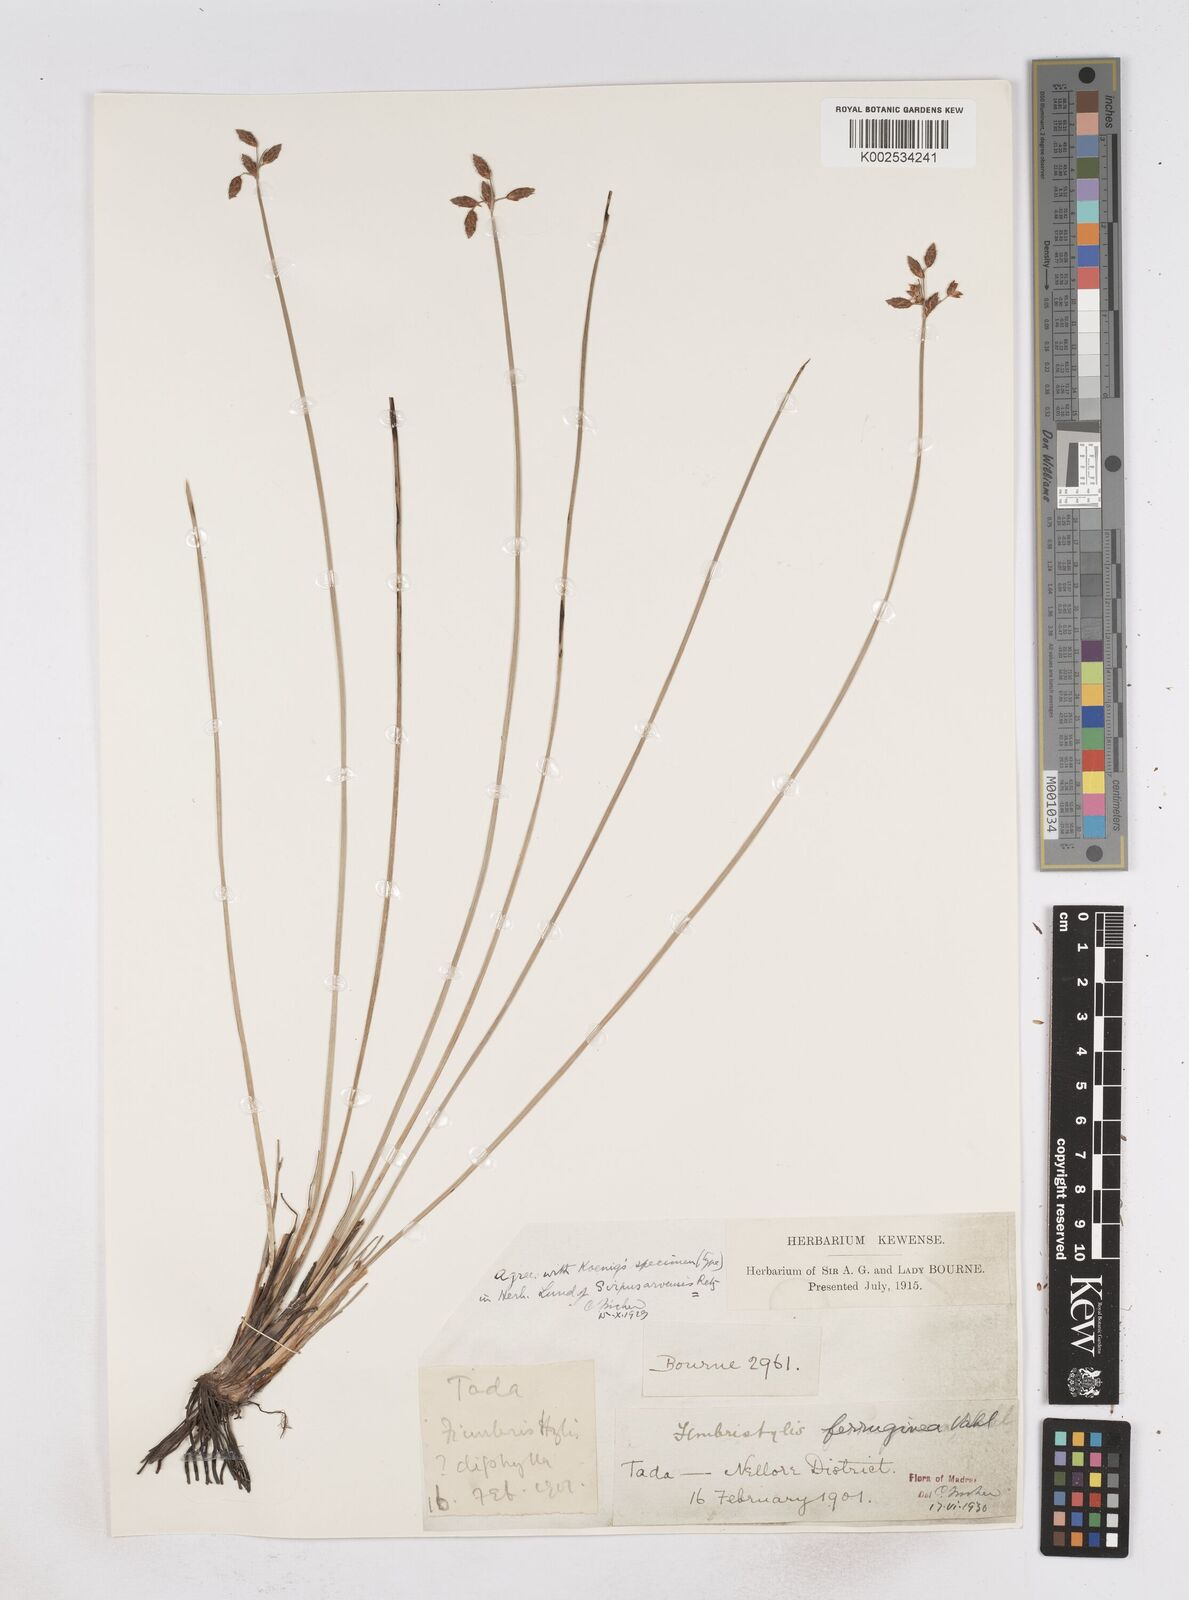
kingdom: Plantae
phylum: Tracheophyta
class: Liliopsida
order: Poales
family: Cyperaceae
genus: Fimbristylis
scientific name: Fimbristylis ferruginea
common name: West indian fimbry
